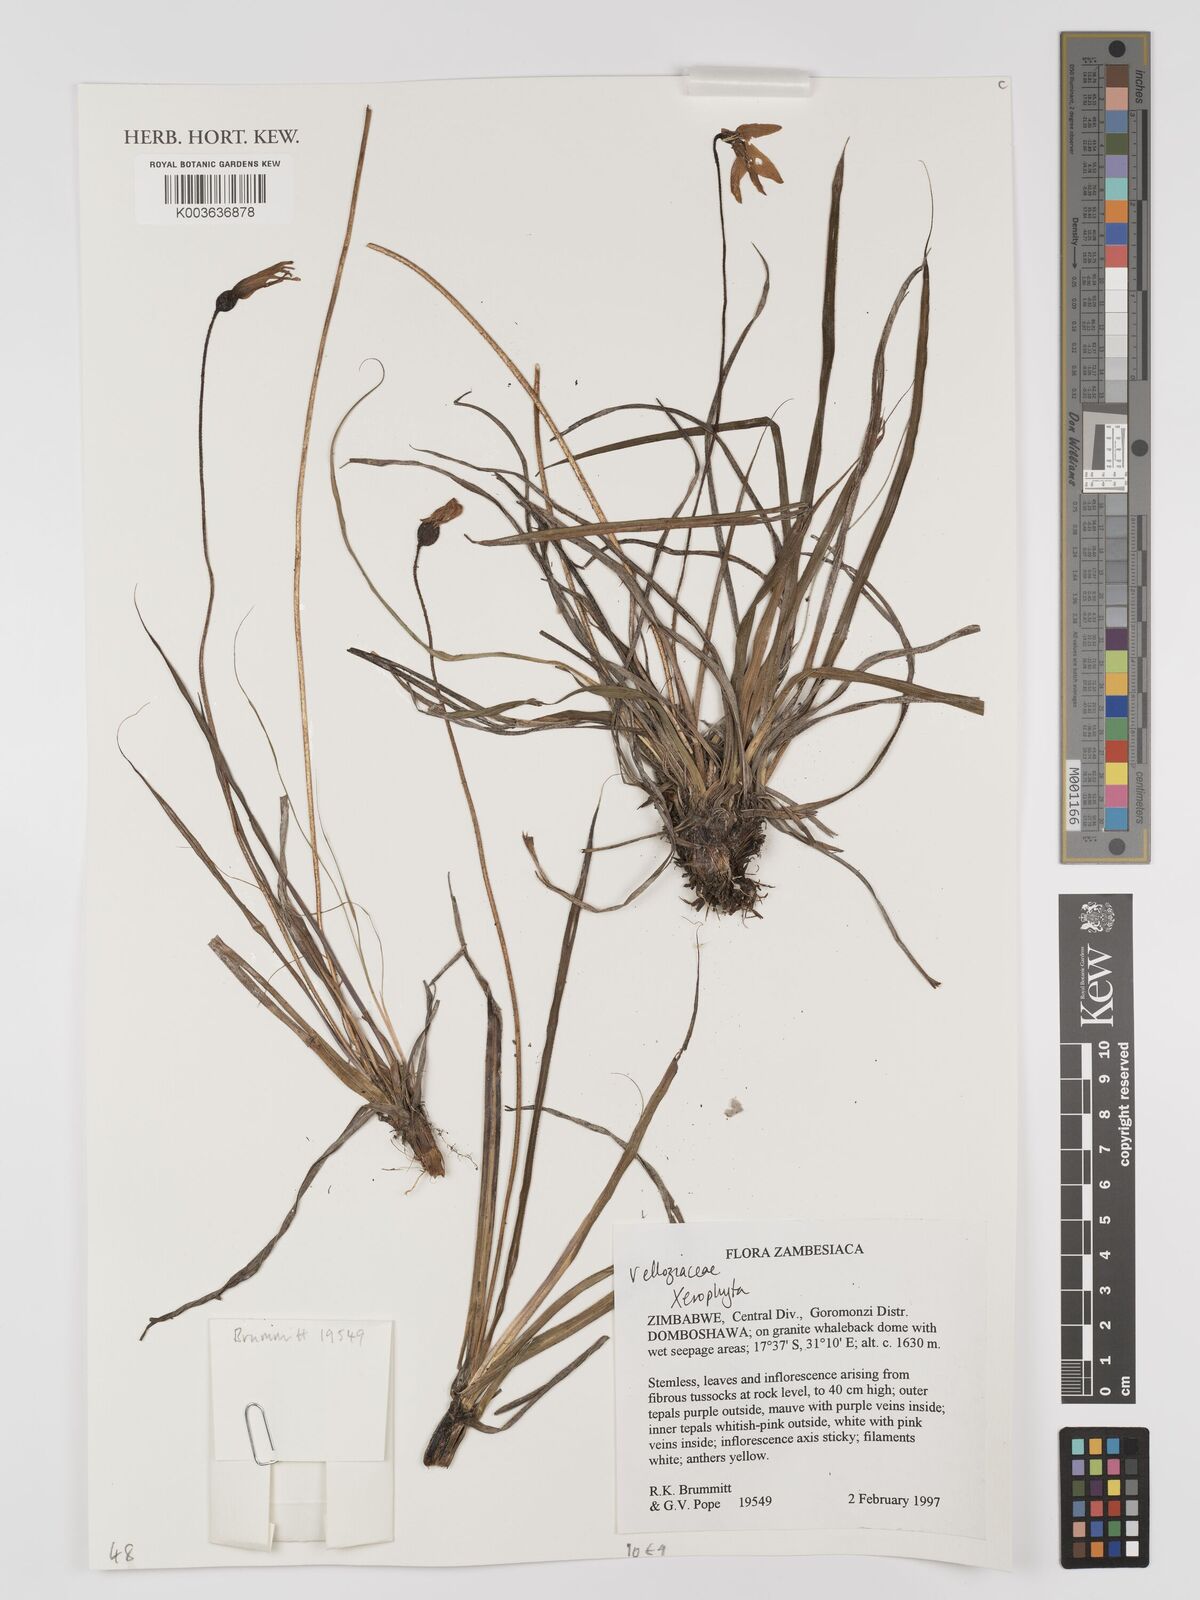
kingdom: Plantae
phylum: Tracheophyta
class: Liliopsida
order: Pandanales
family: Velloziaceae
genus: Xerophyta
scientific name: Xerophyta
